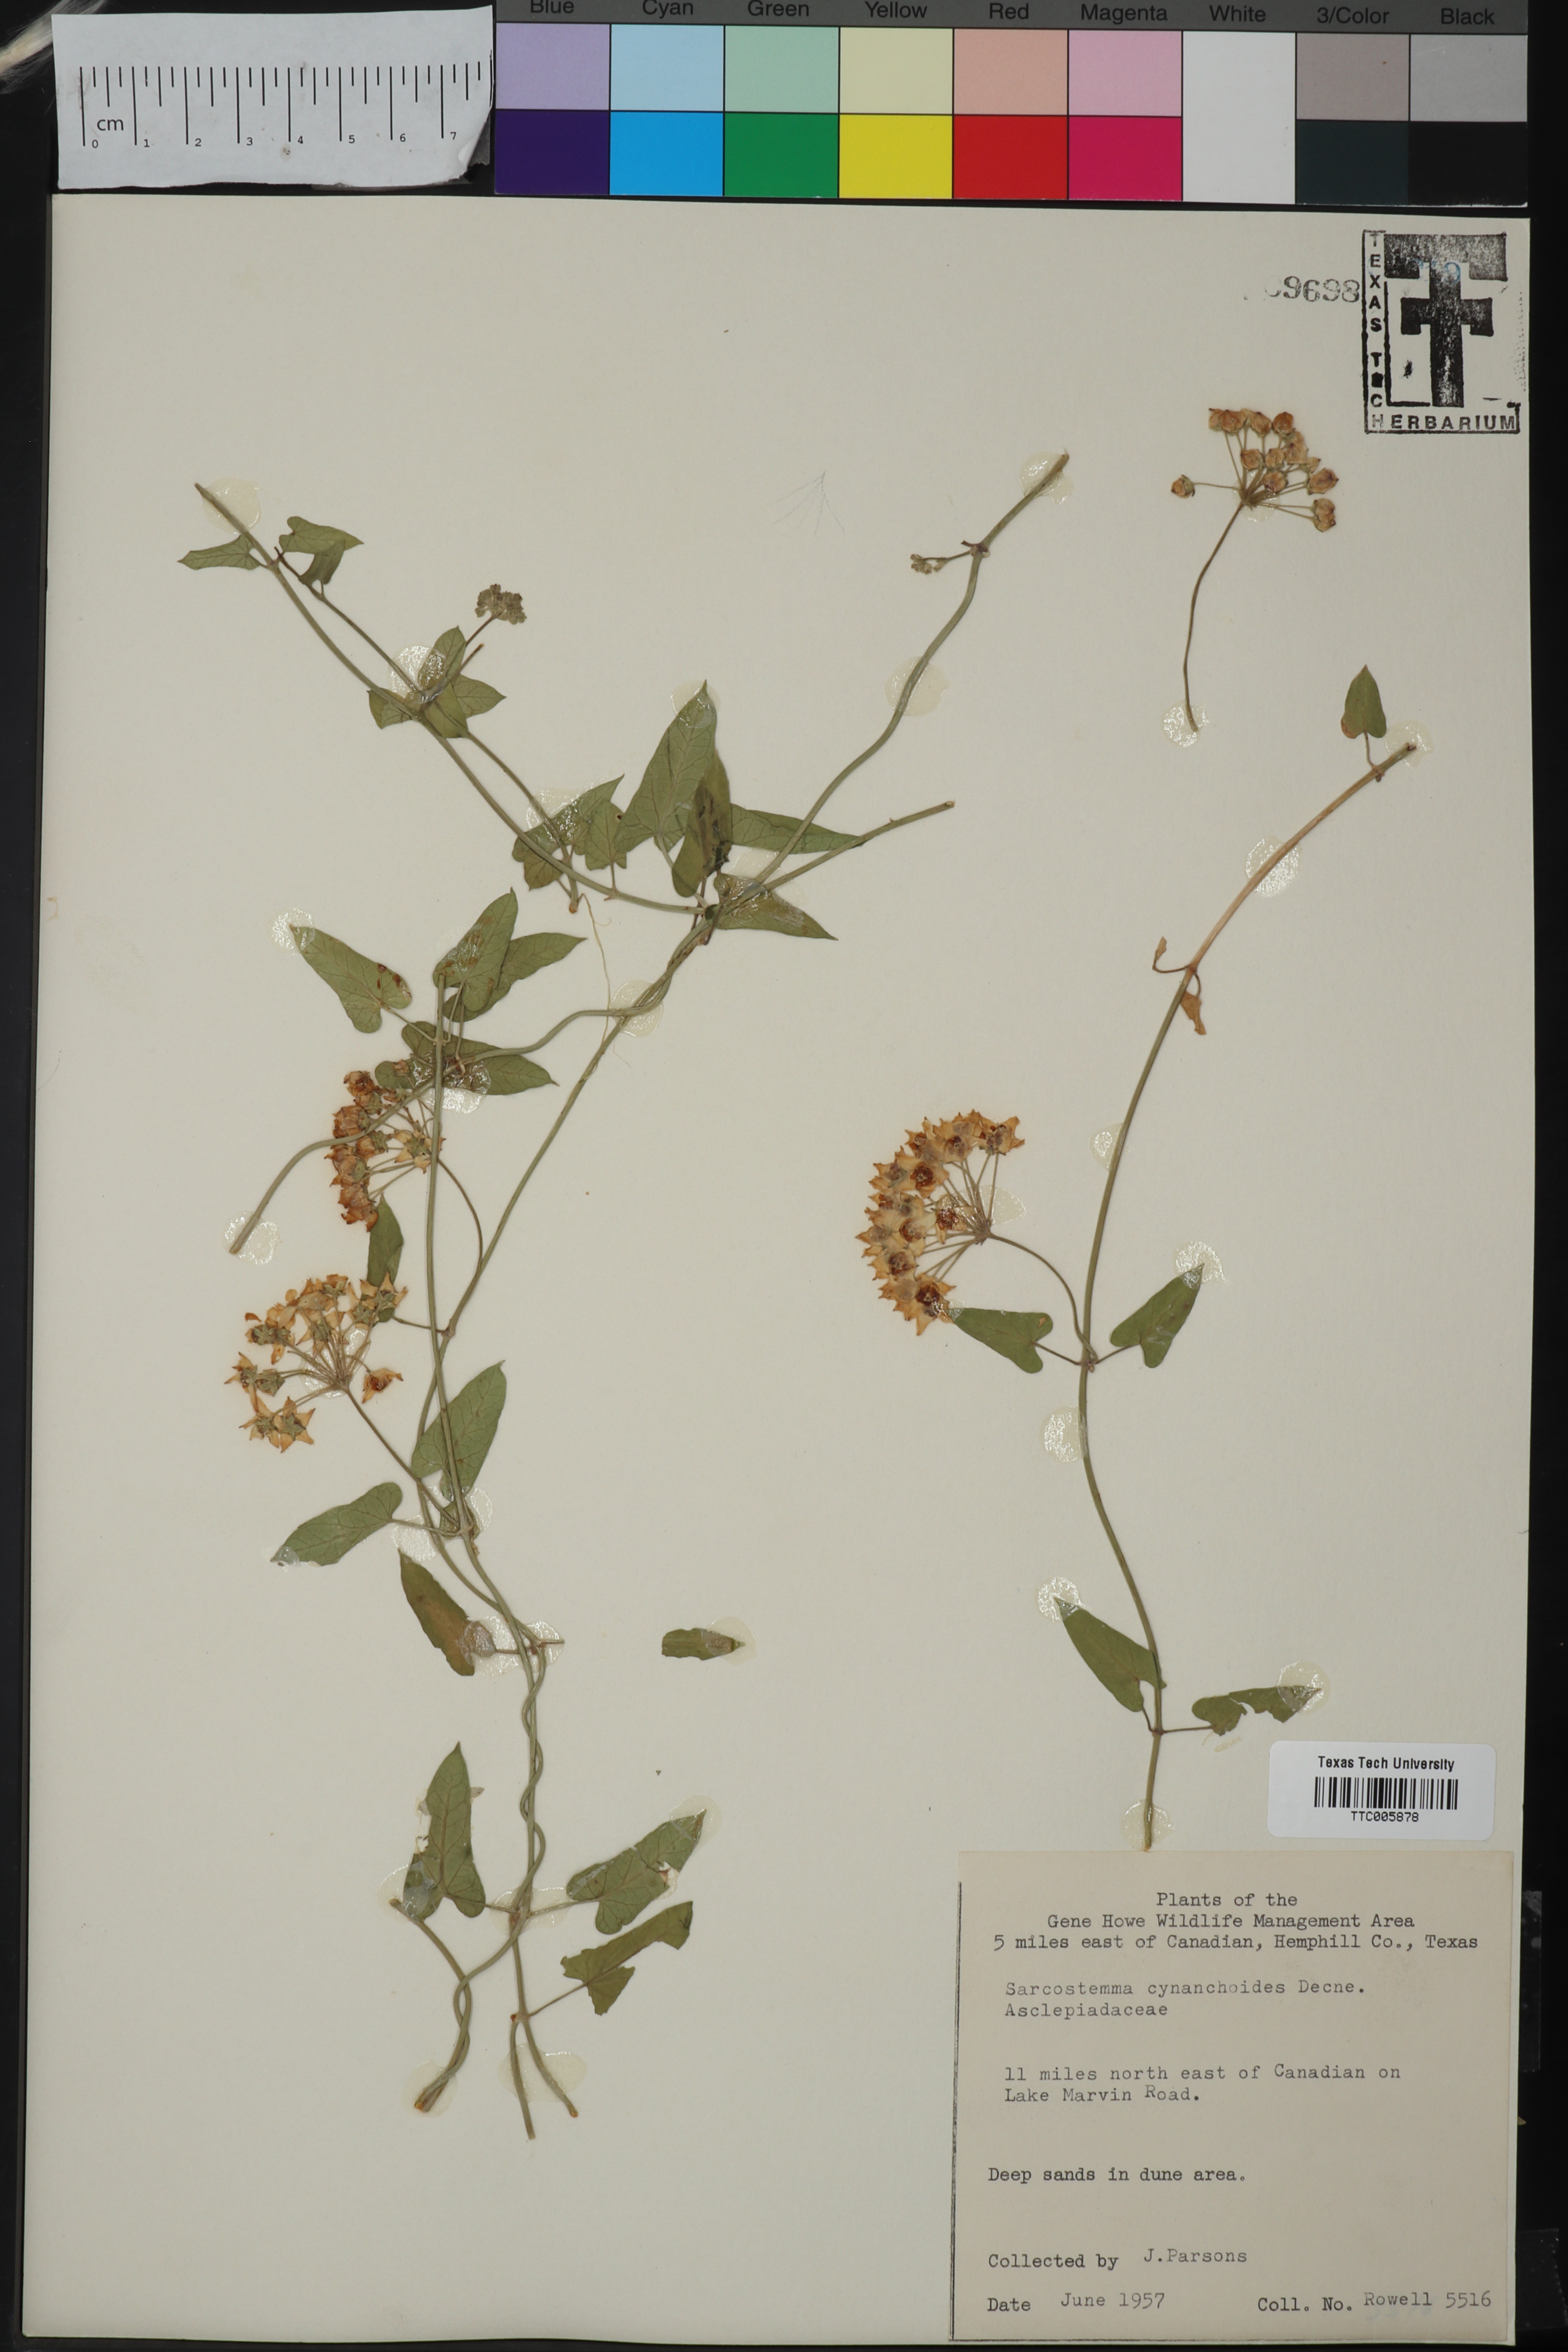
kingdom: Plantae
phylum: Tracheophyta
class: Magnoliopsida
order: Gentianales
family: Apocynaceae
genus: Funastrum
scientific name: Funastrum cynanchoides
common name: Climbing-milkweed
